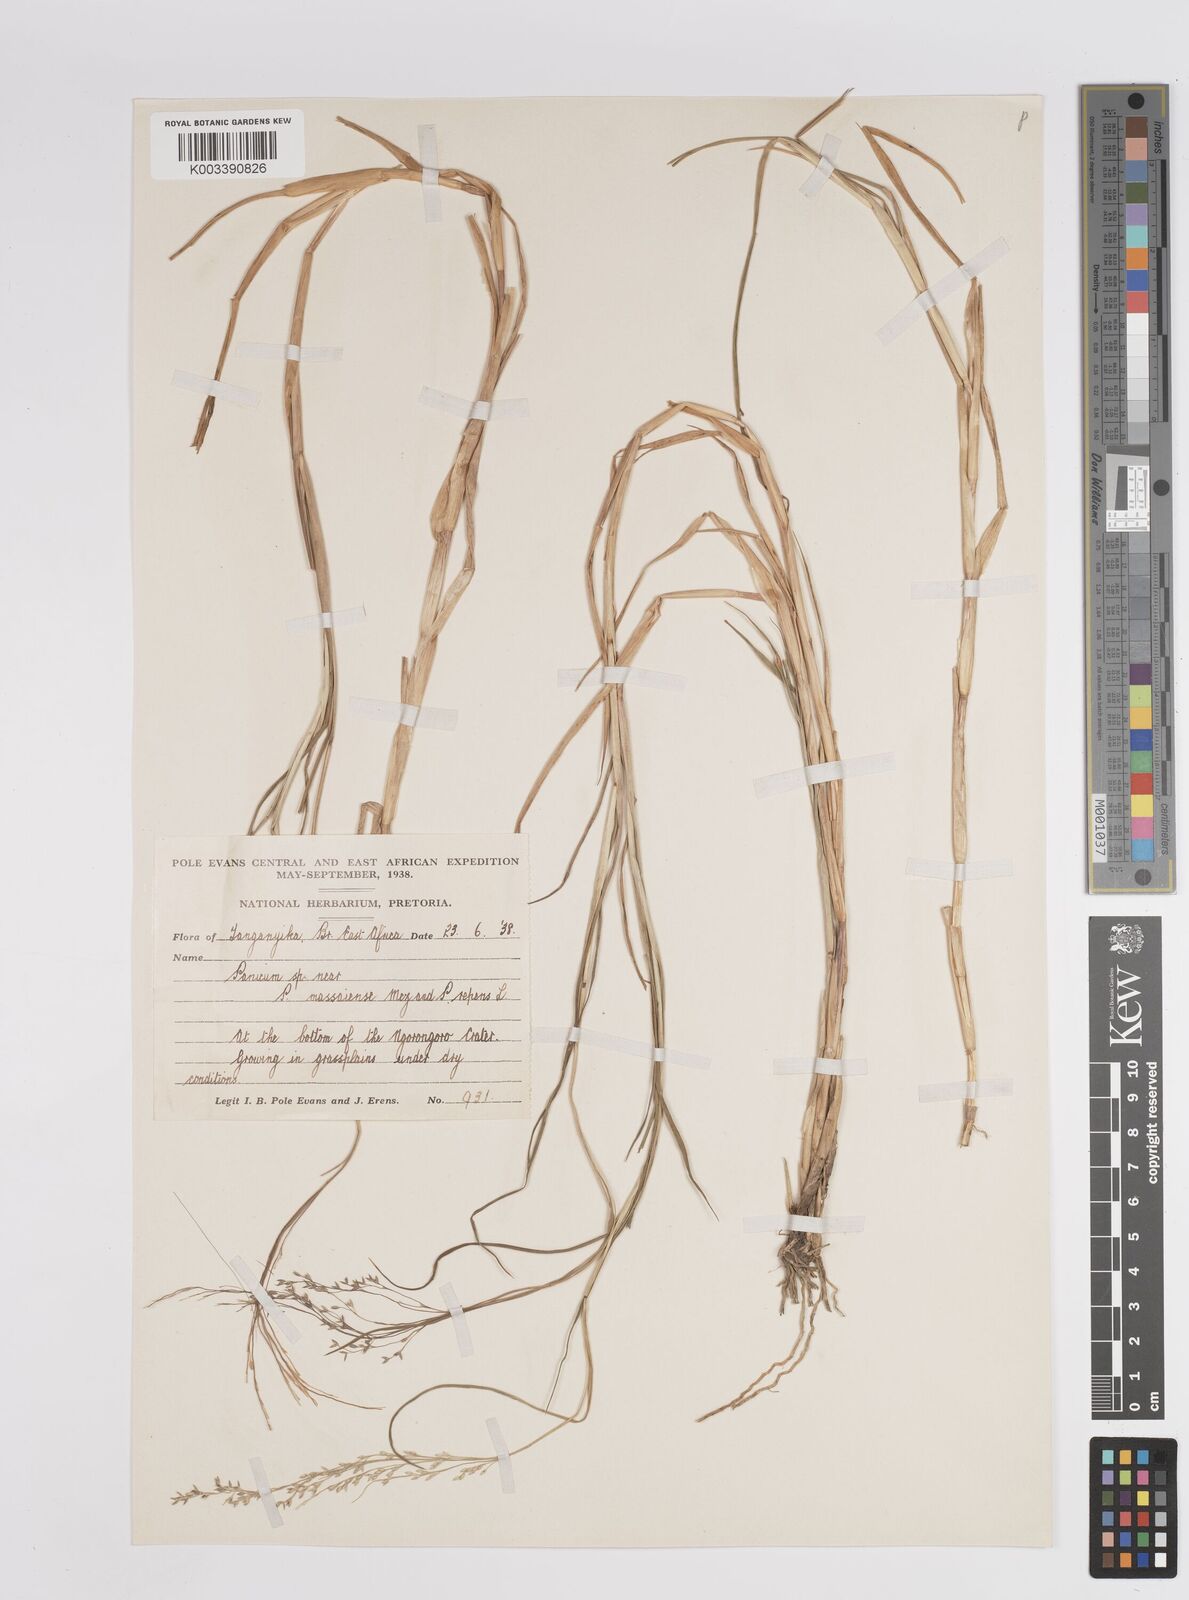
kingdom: Plantae
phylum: Tracheophyta
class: Liliopsida
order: Poales
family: Poaceae
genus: Panicum
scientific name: Panicum coloratum
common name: Kleingrass
